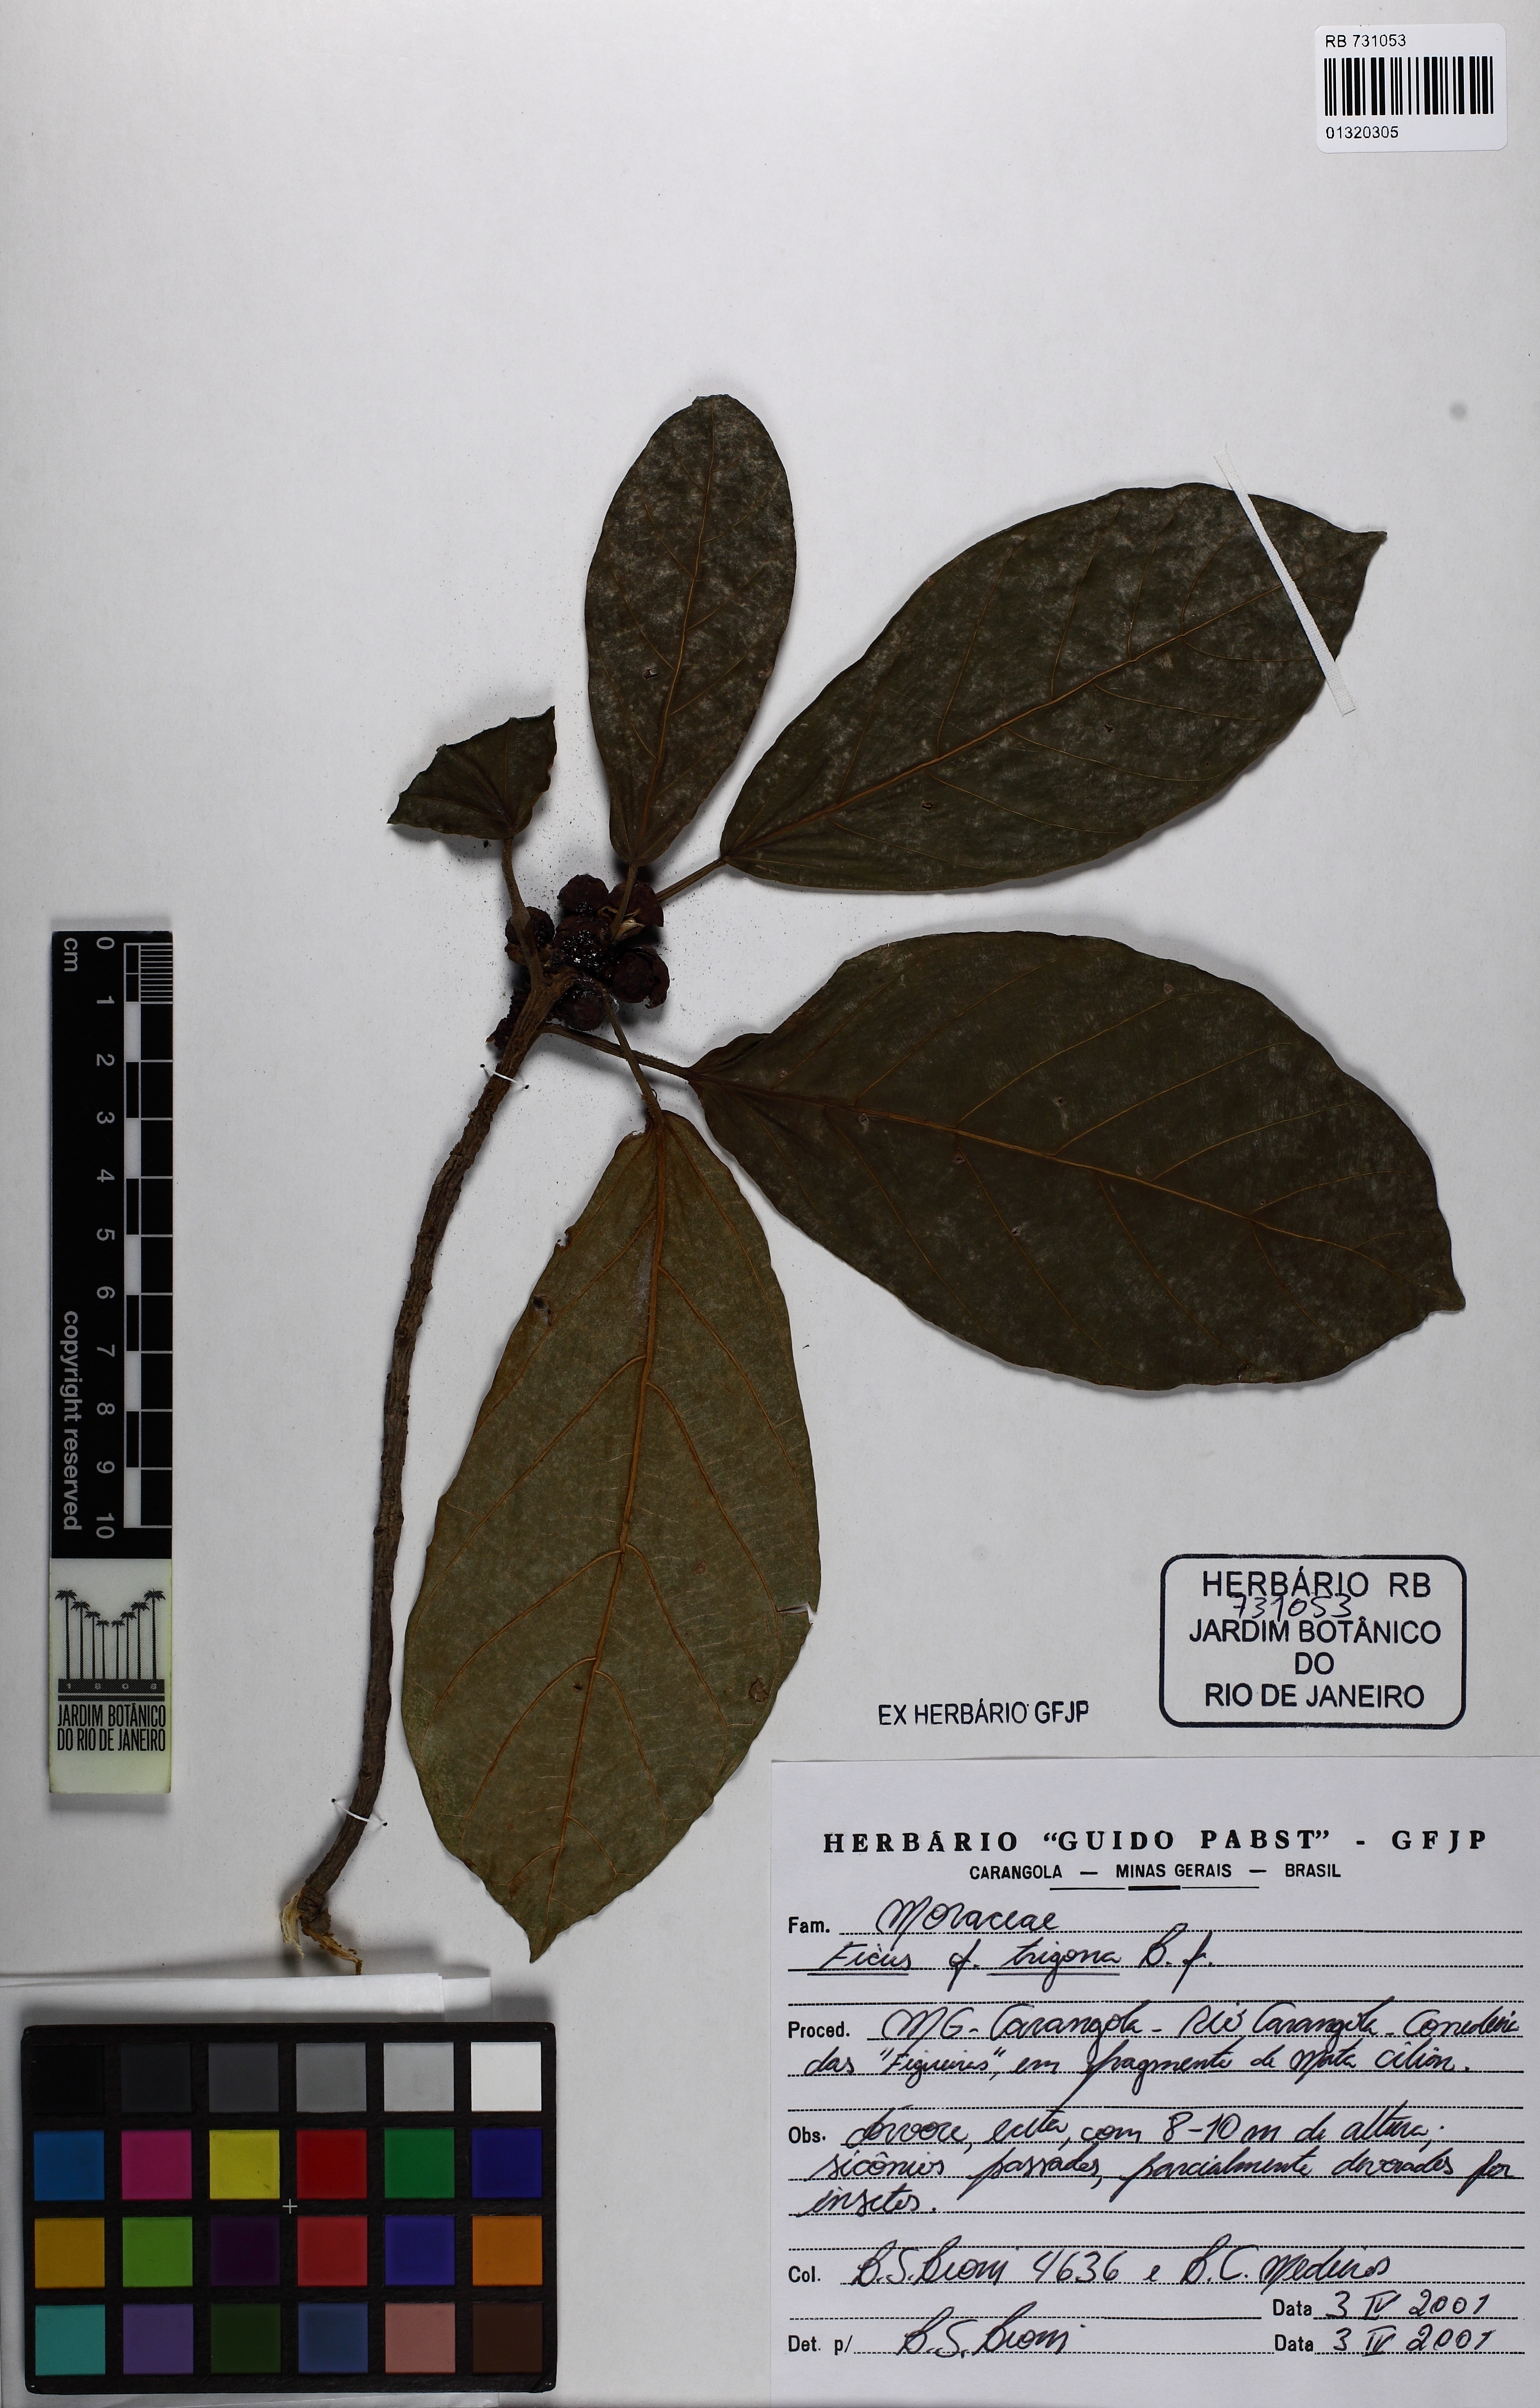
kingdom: Plantae
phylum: Tracheophyta
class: Magnoliopsida
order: Rosales
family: Moraceae
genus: Ficus
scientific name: Ficus trigona
